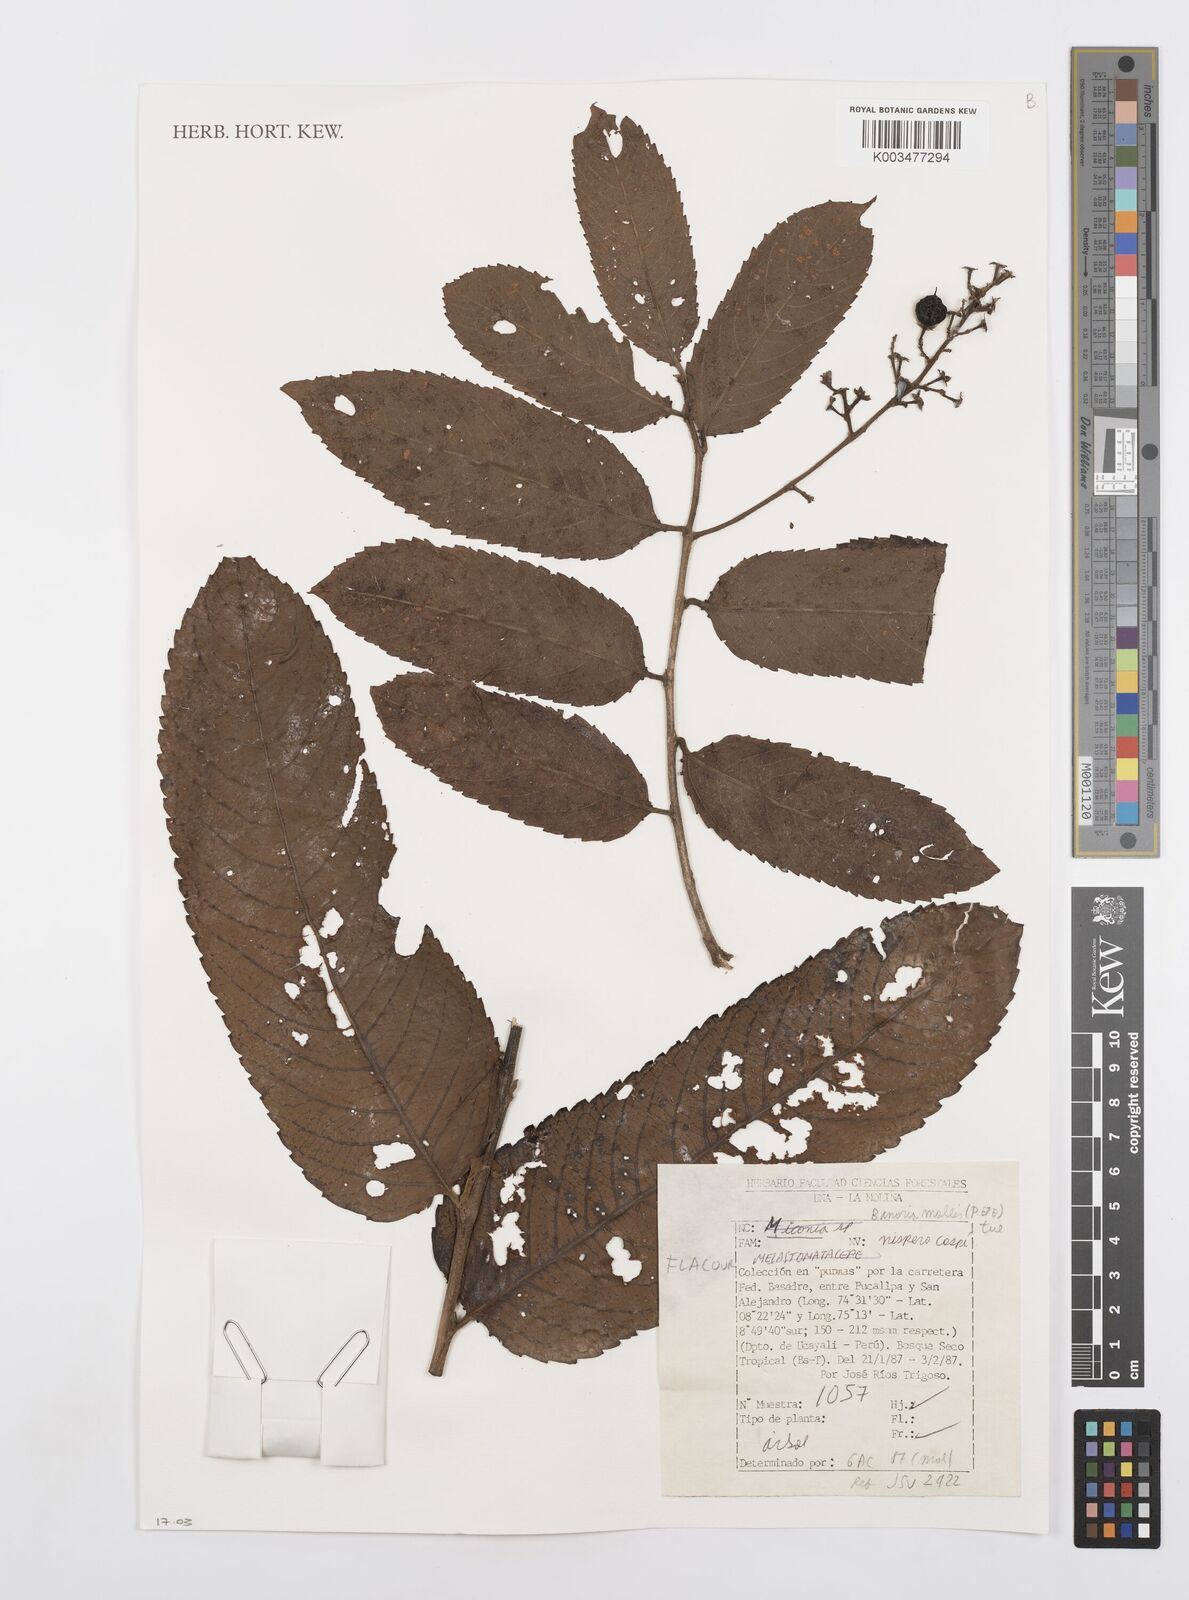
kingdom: Plantae
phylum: Tracheophyta
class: Magnoliopsida
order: Malpighiales
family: Salicaceae
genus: Banara
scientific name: Banara guianensis
